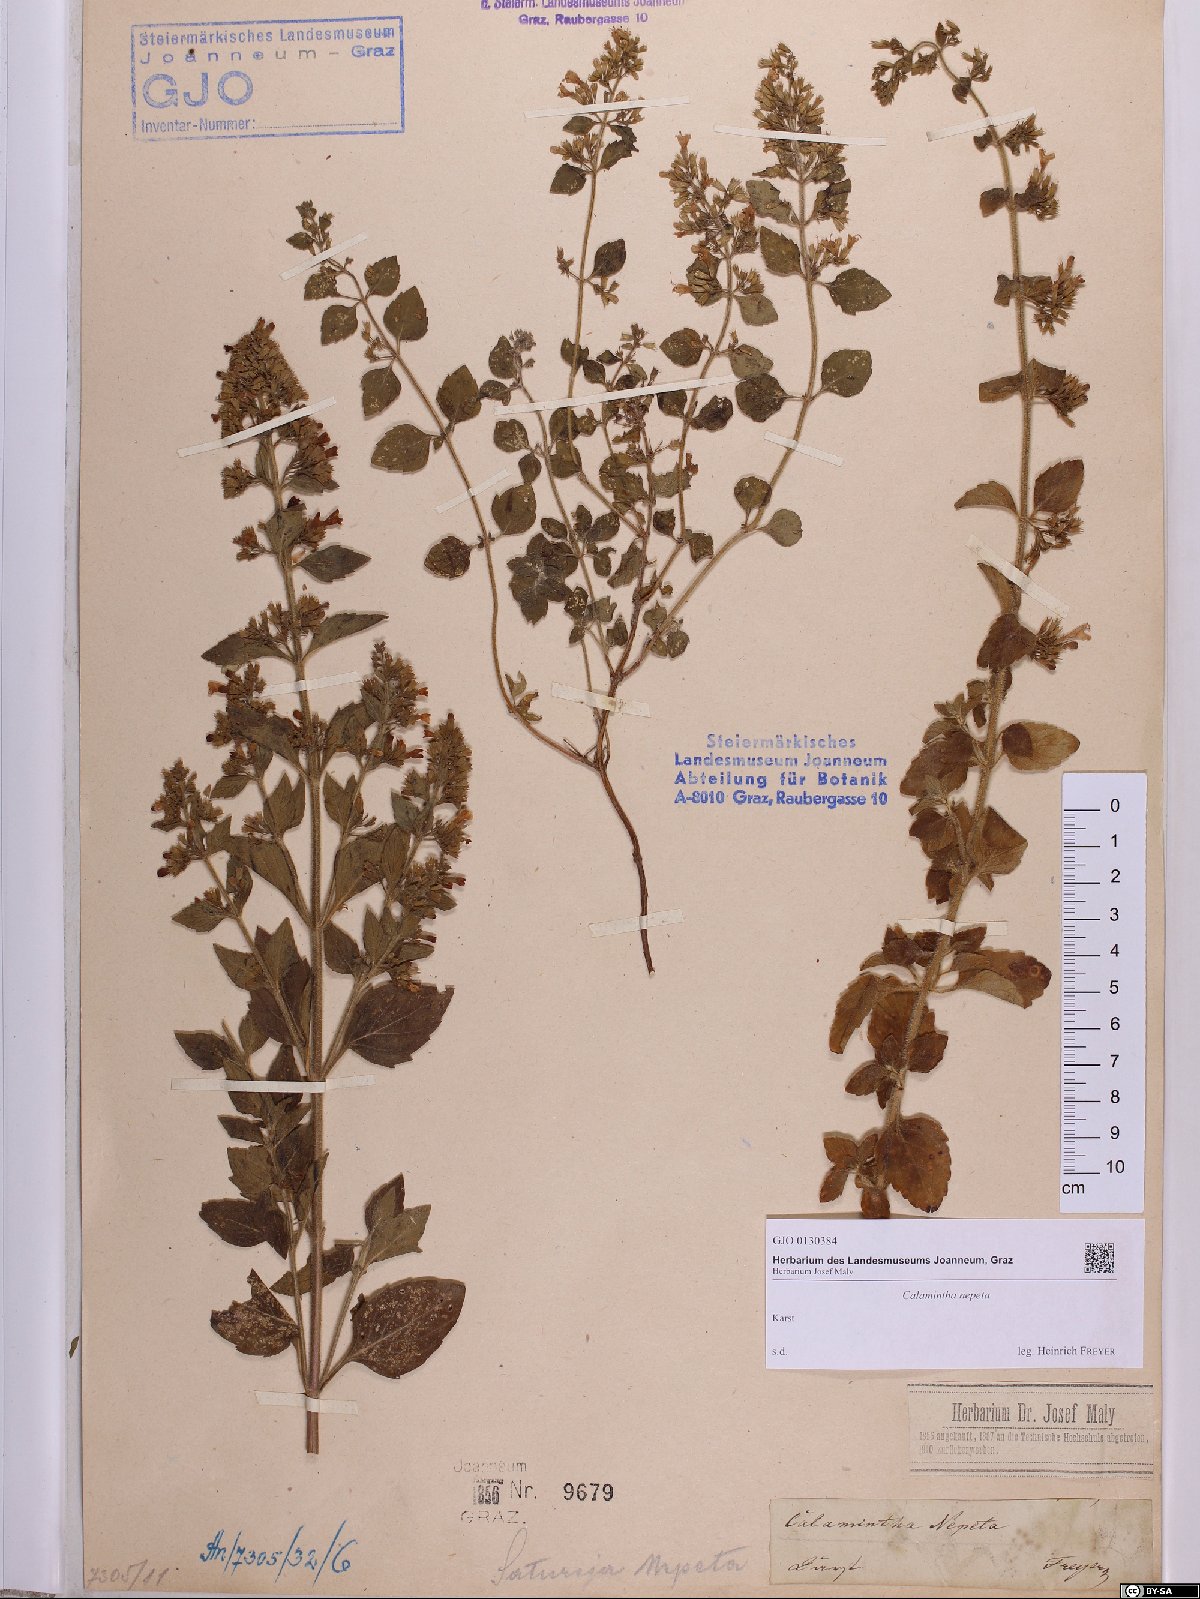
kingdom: Plantae
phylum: Tracheophyta
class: Magnoliopsida
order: Lamiales
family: Lamiaceae
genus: Clinopodium
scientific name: Clinopodium nepeta
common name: Lesser calamint
